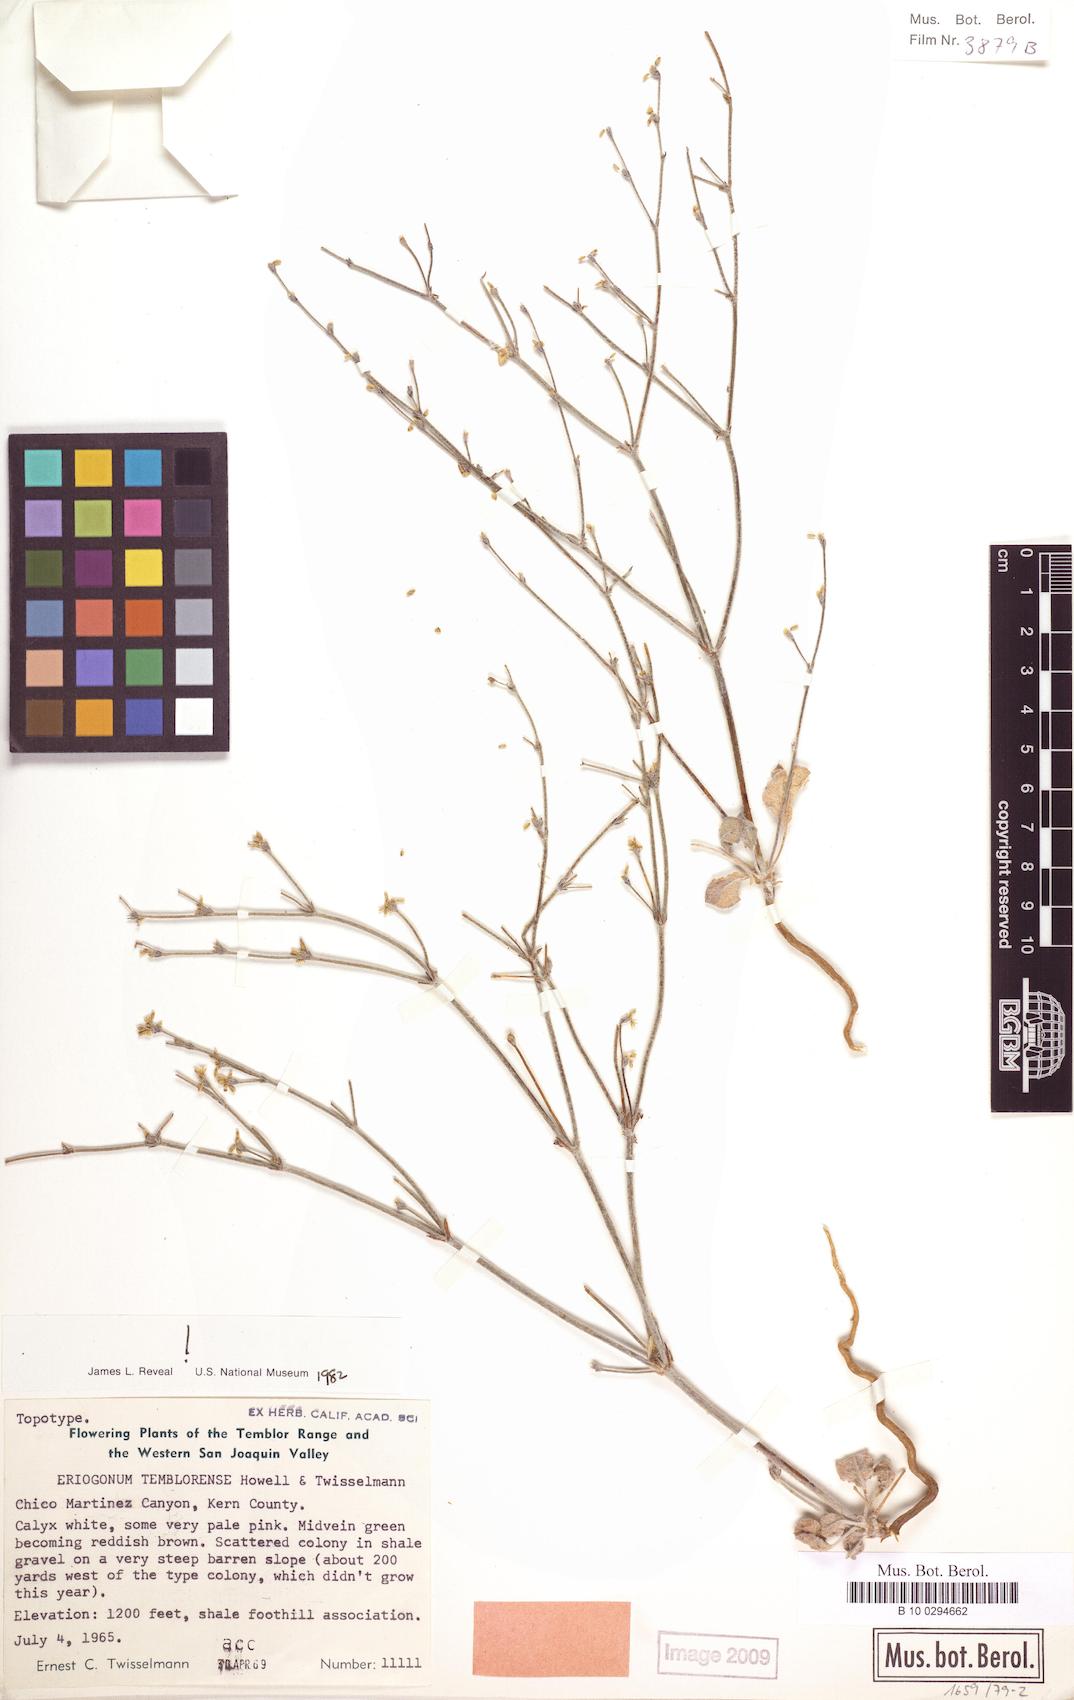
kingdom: Plantae
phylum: Tracheophyta
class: Magnoliopsida
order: Caryophyllales
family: Polygonaceae
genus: Eriogonum
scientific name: Eriogonum temblorense
